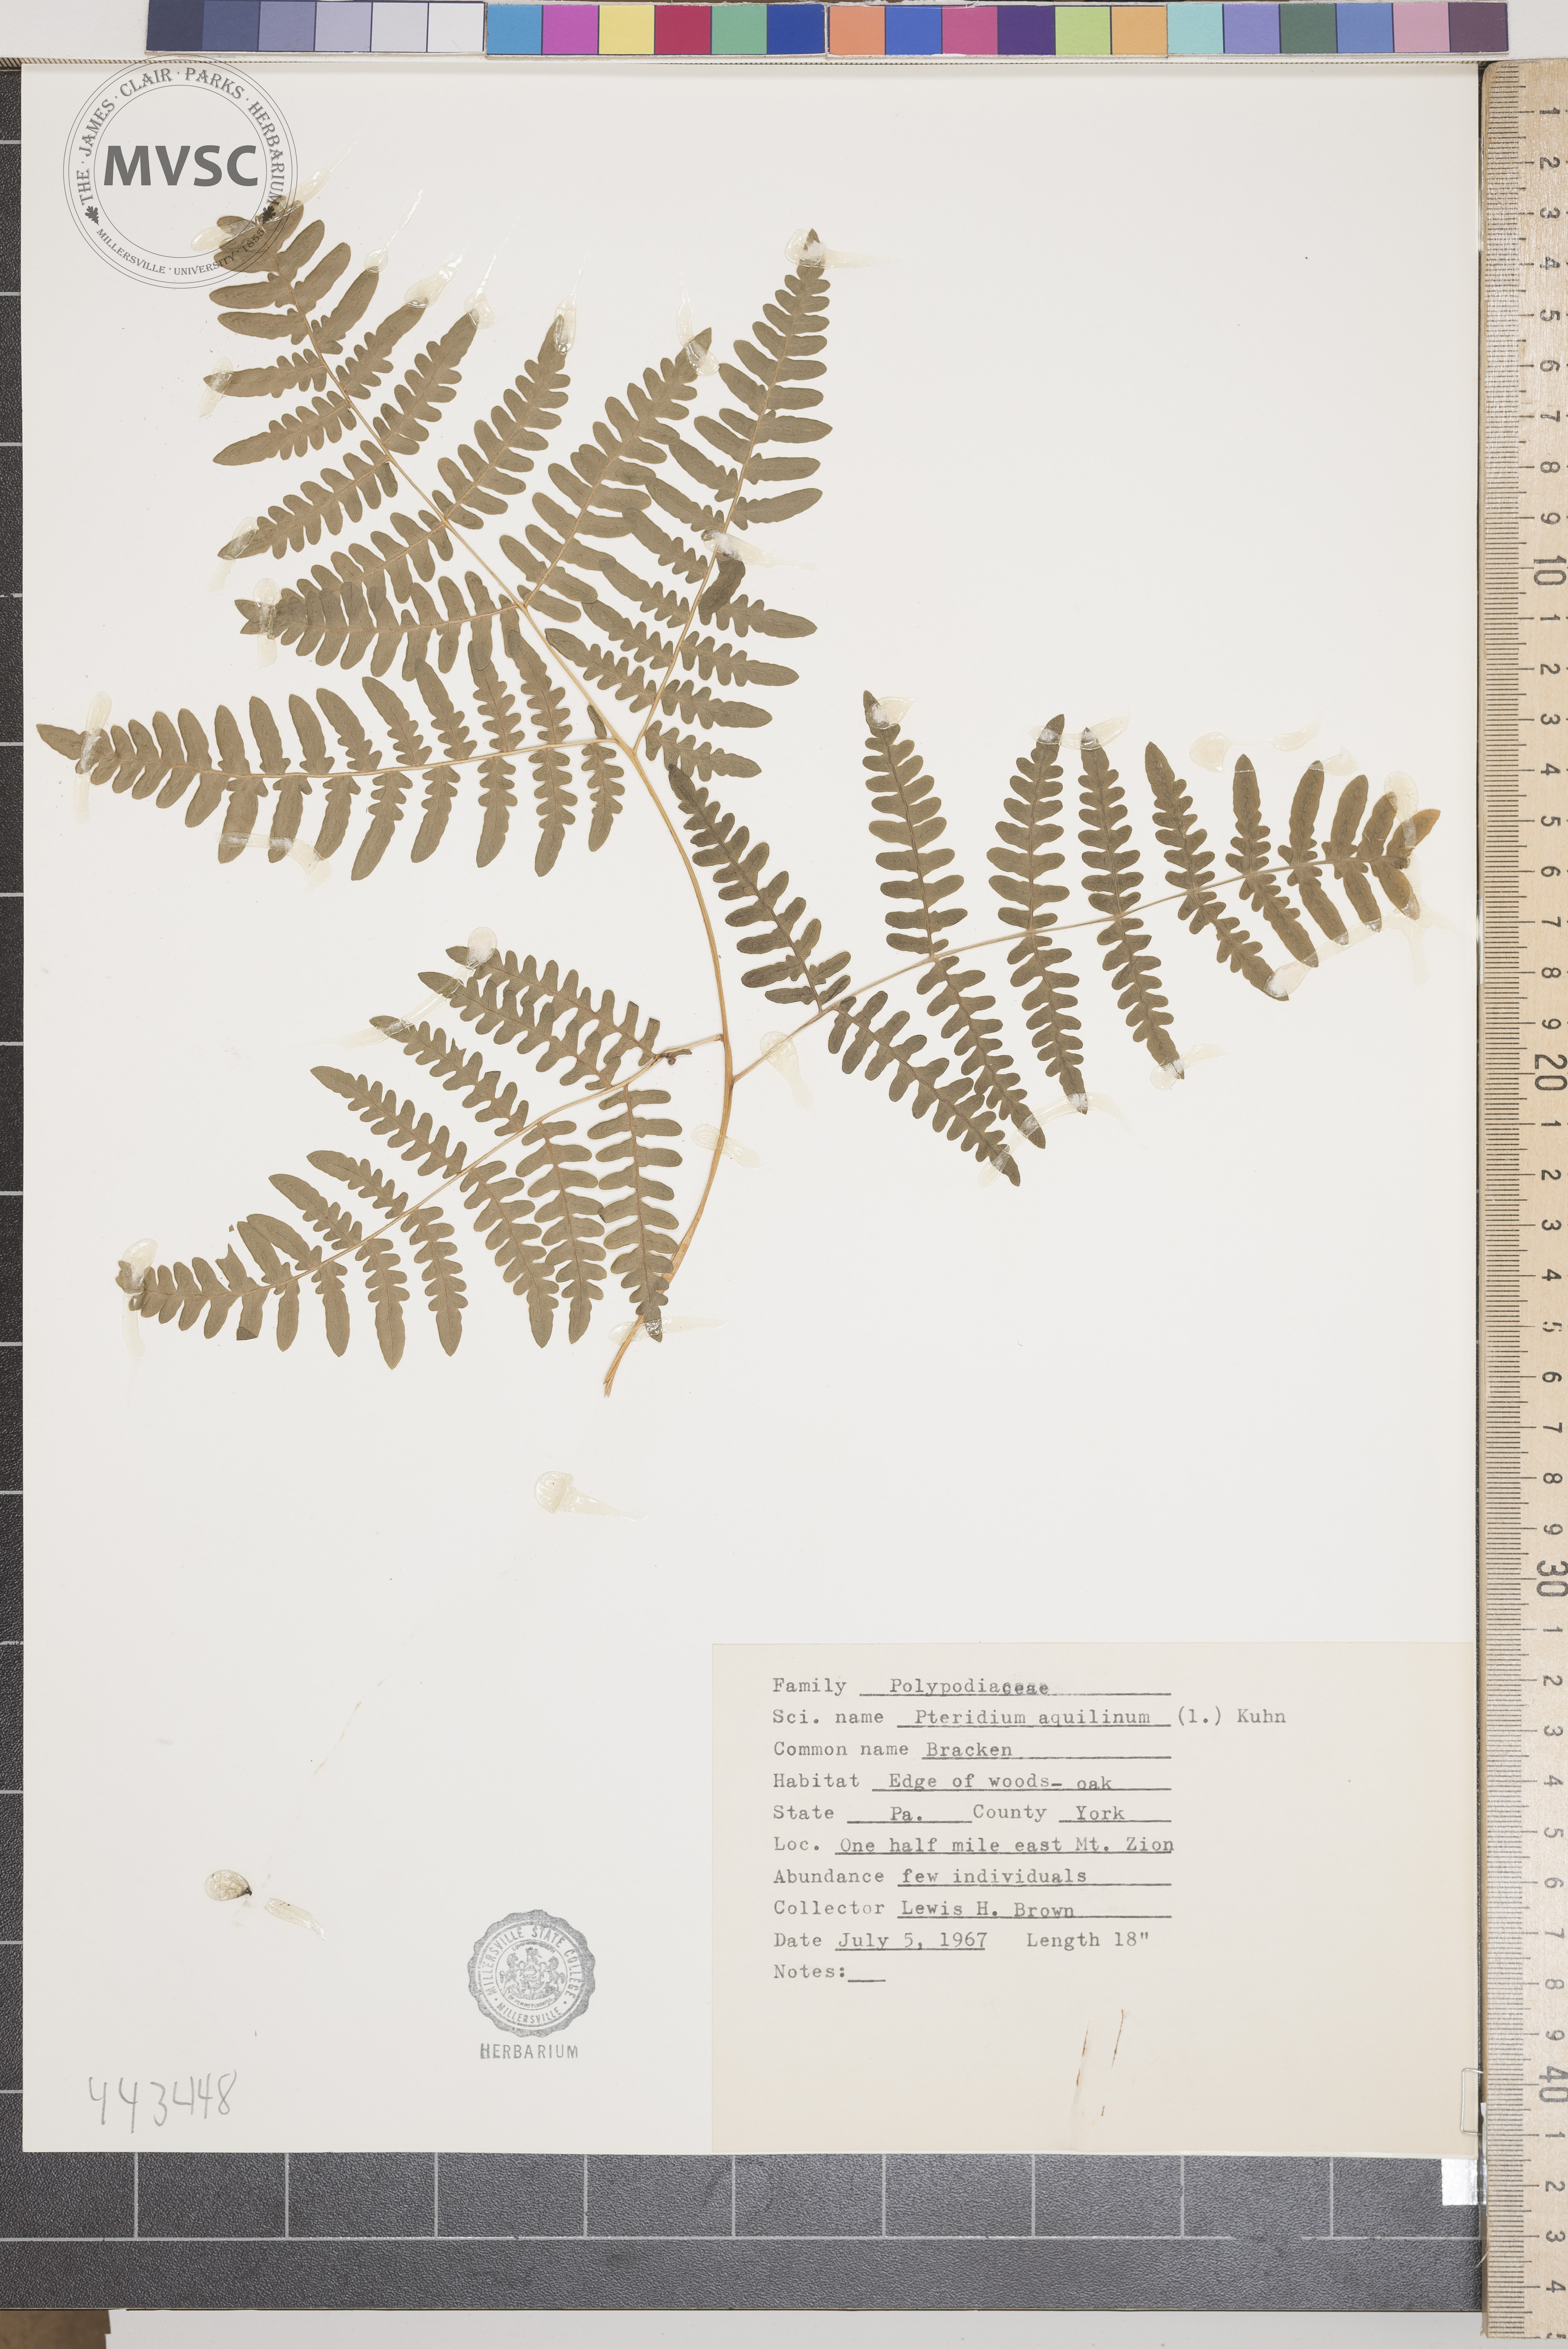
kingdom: Plantae
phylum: Tracheophyta
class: Polypodiopsida
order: Polypodiales
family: Dennstaedtiaceae
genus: Pteridium
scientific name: Pteridium aquilinum
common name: Bracken
